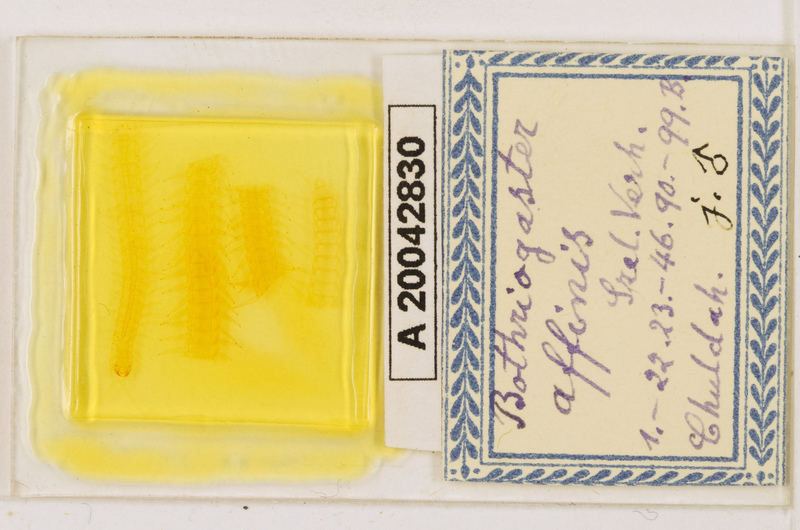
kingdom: Animalia
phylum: Arthropoda
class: Chilopoda
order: Geophilomorpha
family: Himantariidae
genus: Bothriogaster
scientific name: Bothriogaster signata
